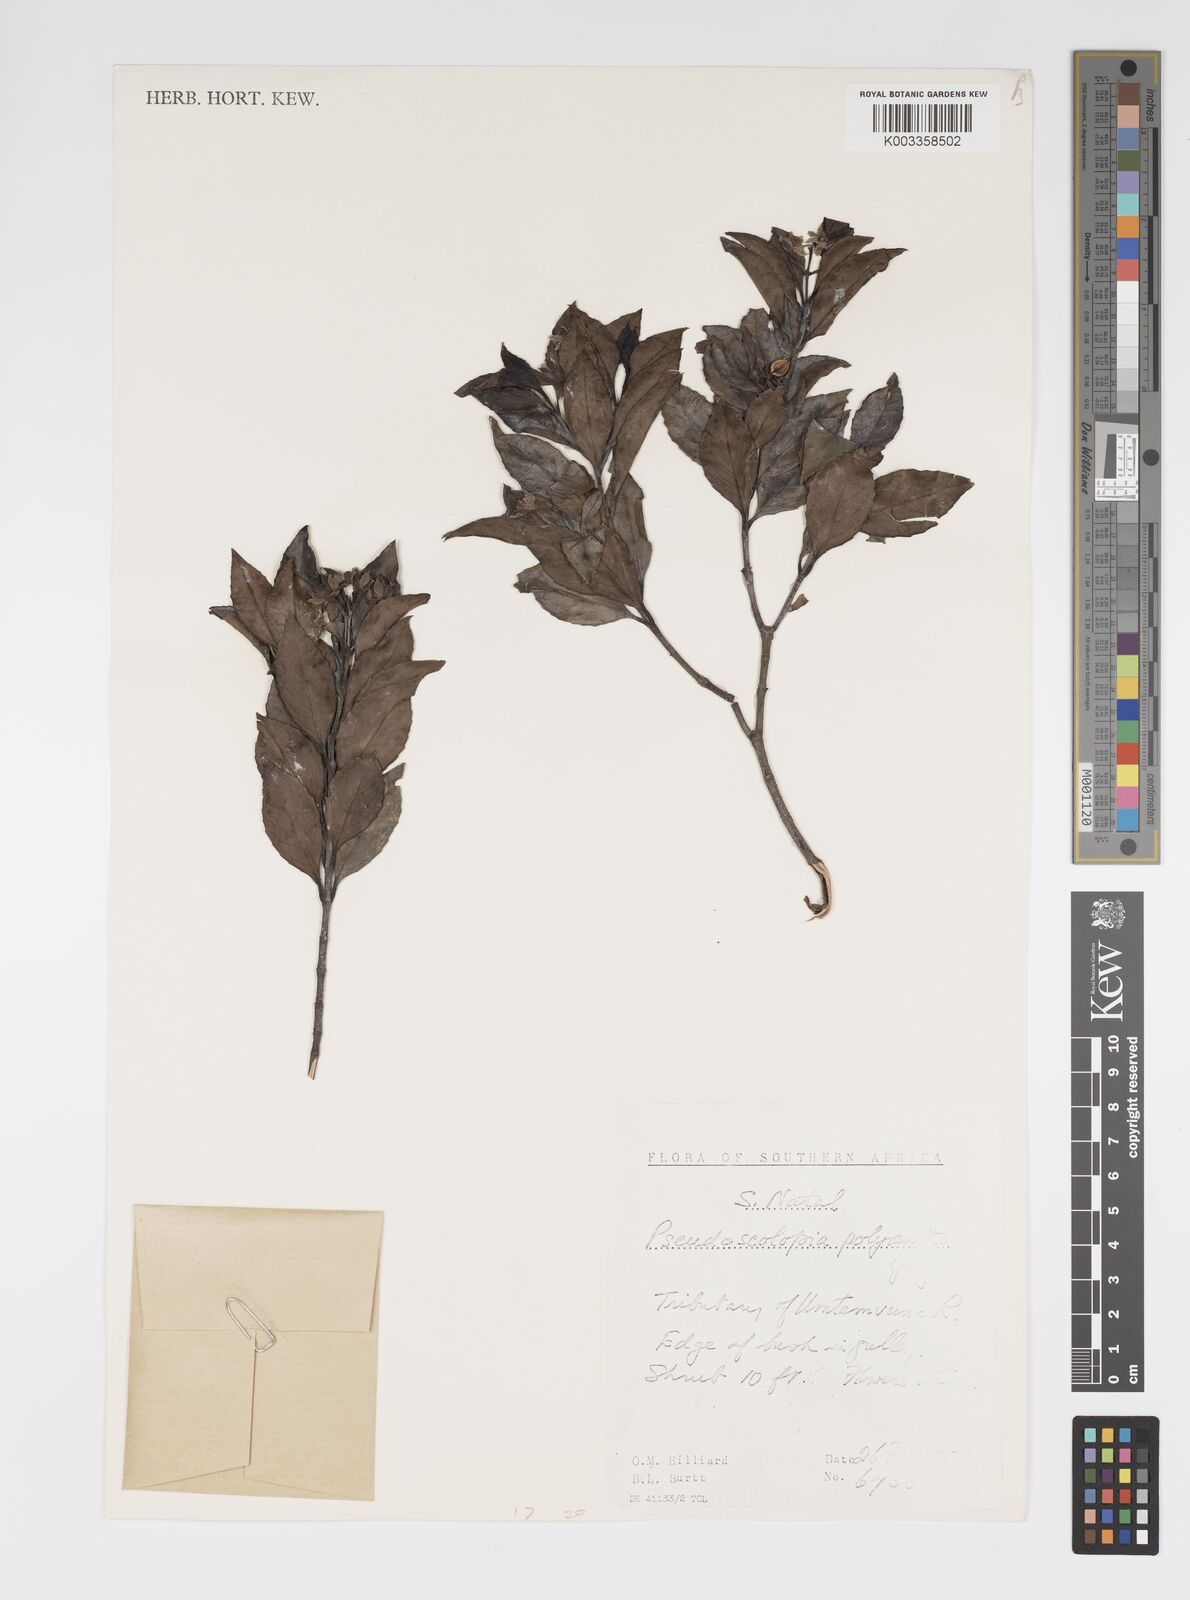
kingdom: Plantae
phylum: Tracheophyta
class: Magnoliopsida
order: Malpighiales
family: Salicaceae
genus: Pseudoscolopia
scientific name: Pseudoscolopia polyantha
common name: Sandstone red-stem
